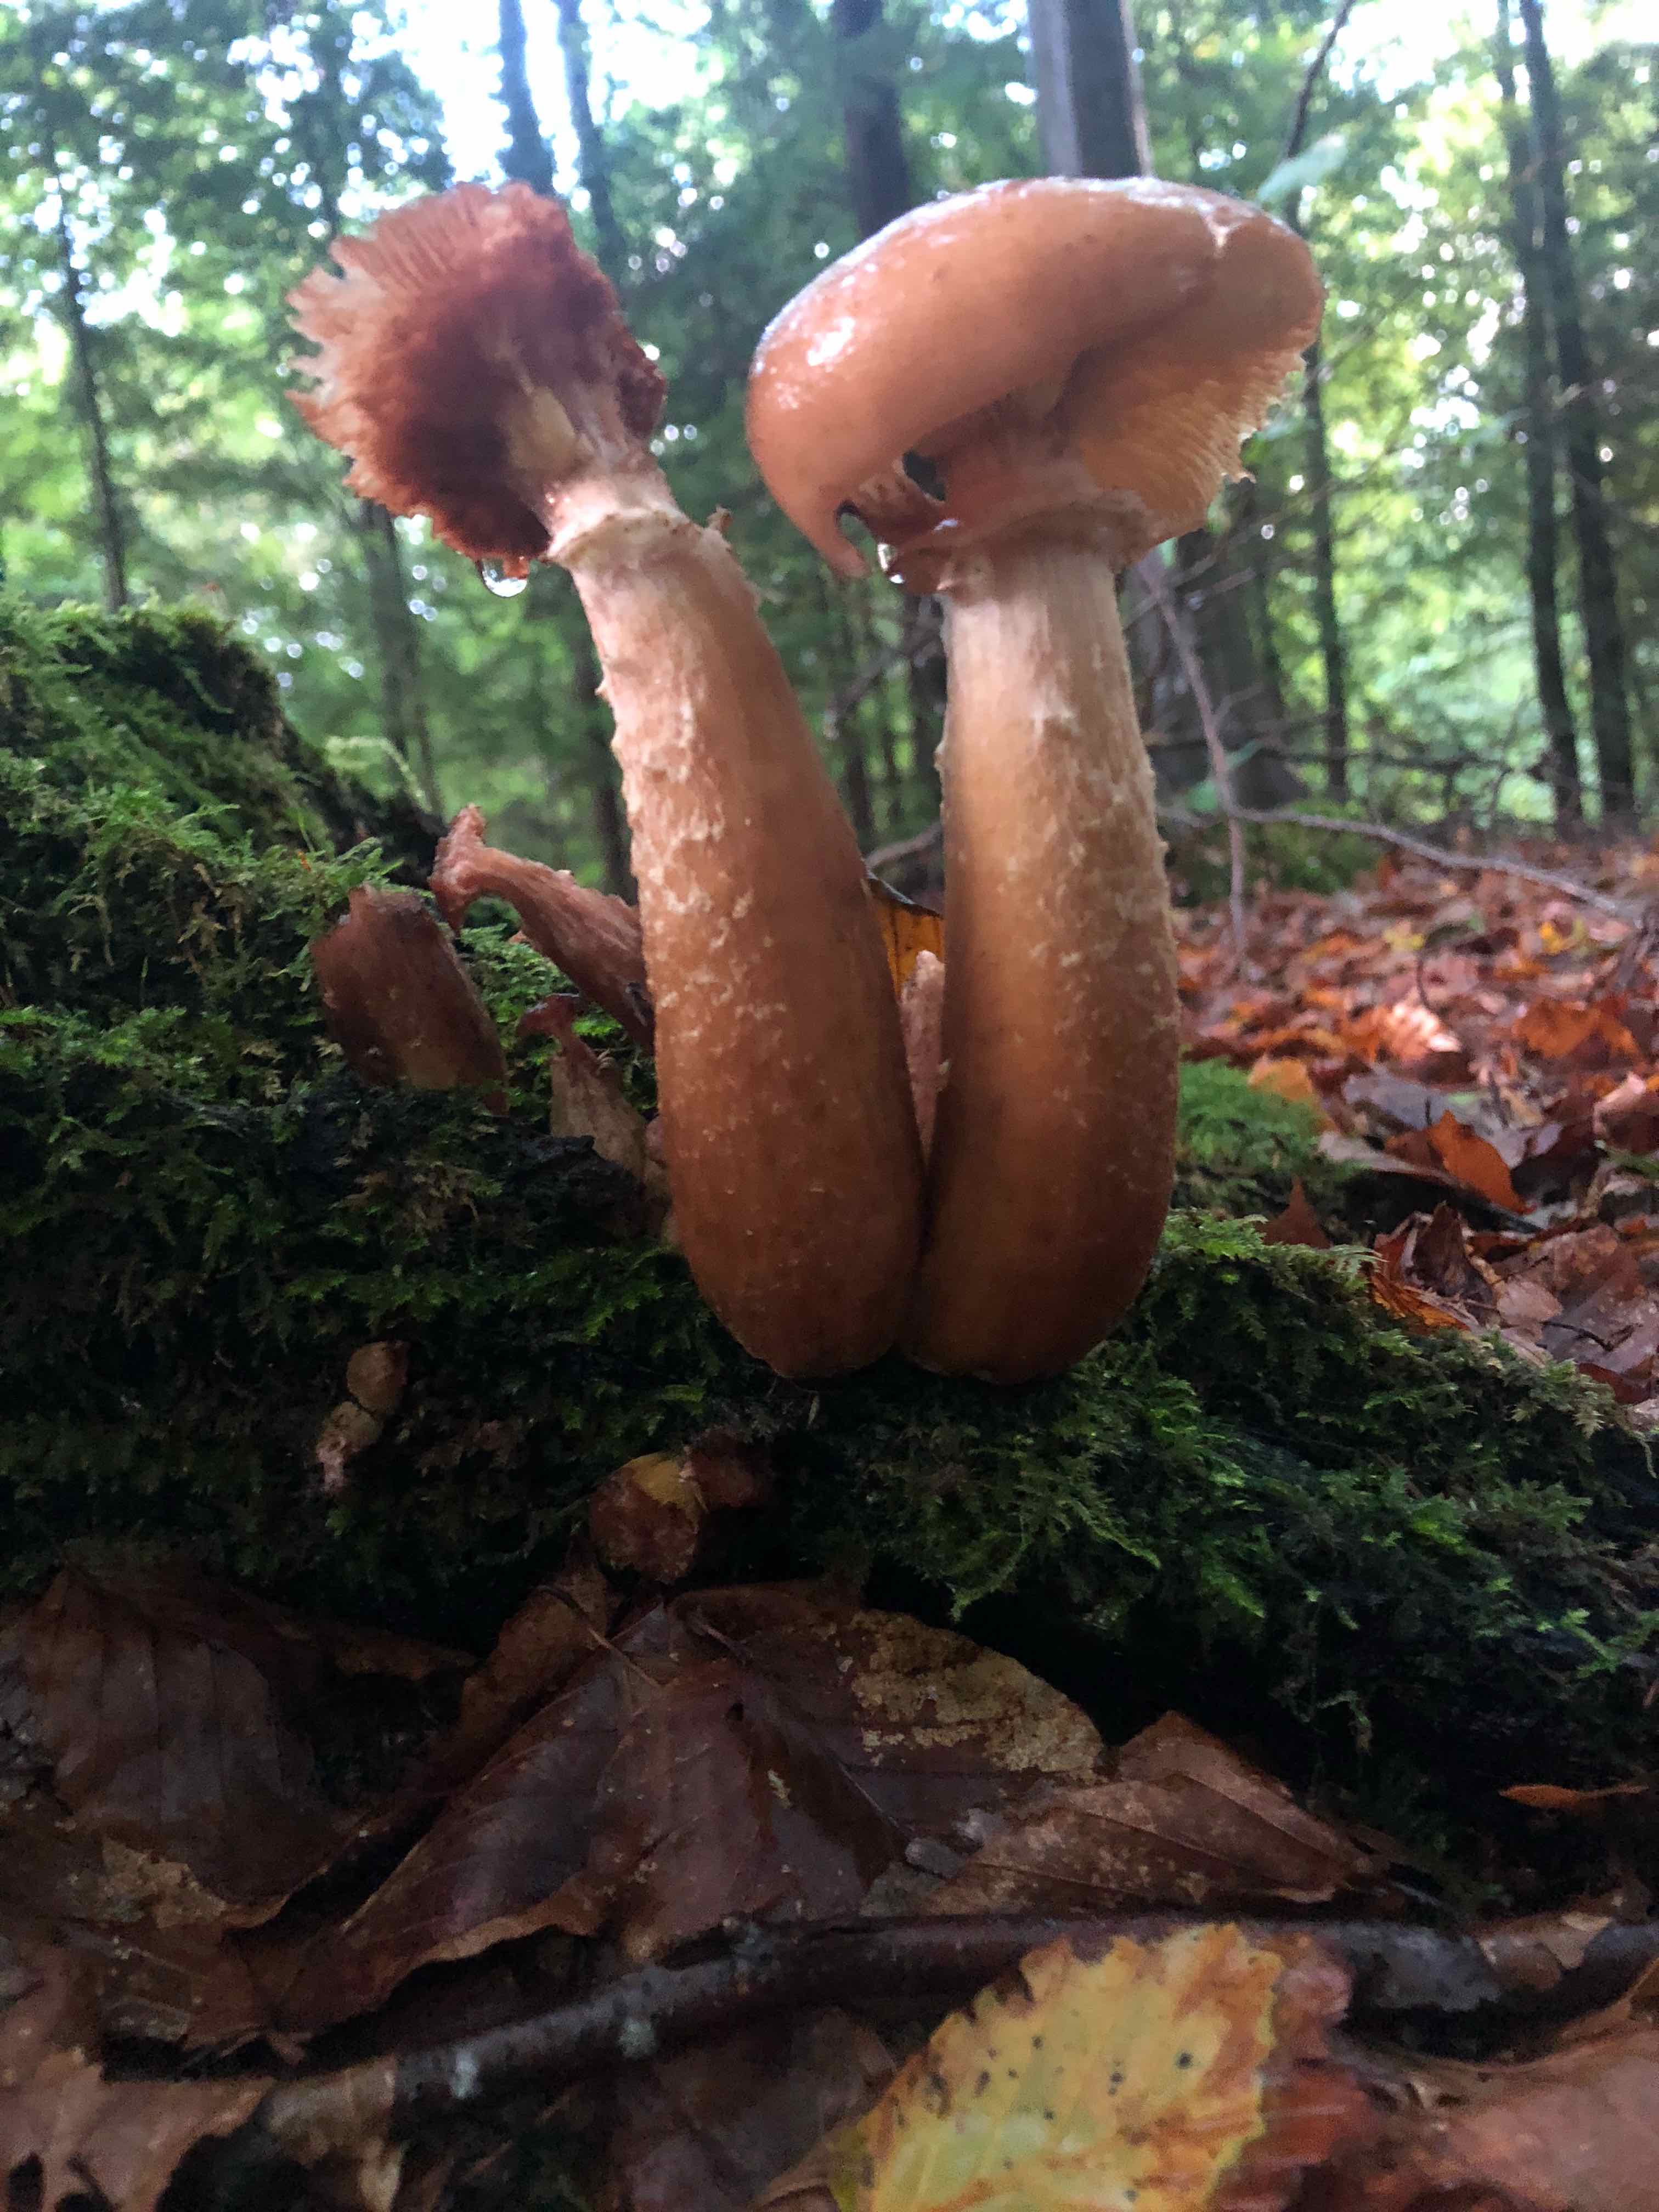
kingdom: Fungi
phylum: Basidiomycota
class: Agaricomycetes
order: Agaricales
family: Physalacriaceae
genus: Armillaria
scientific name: Armillaria lutea
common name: køllestokket honningsvamp
